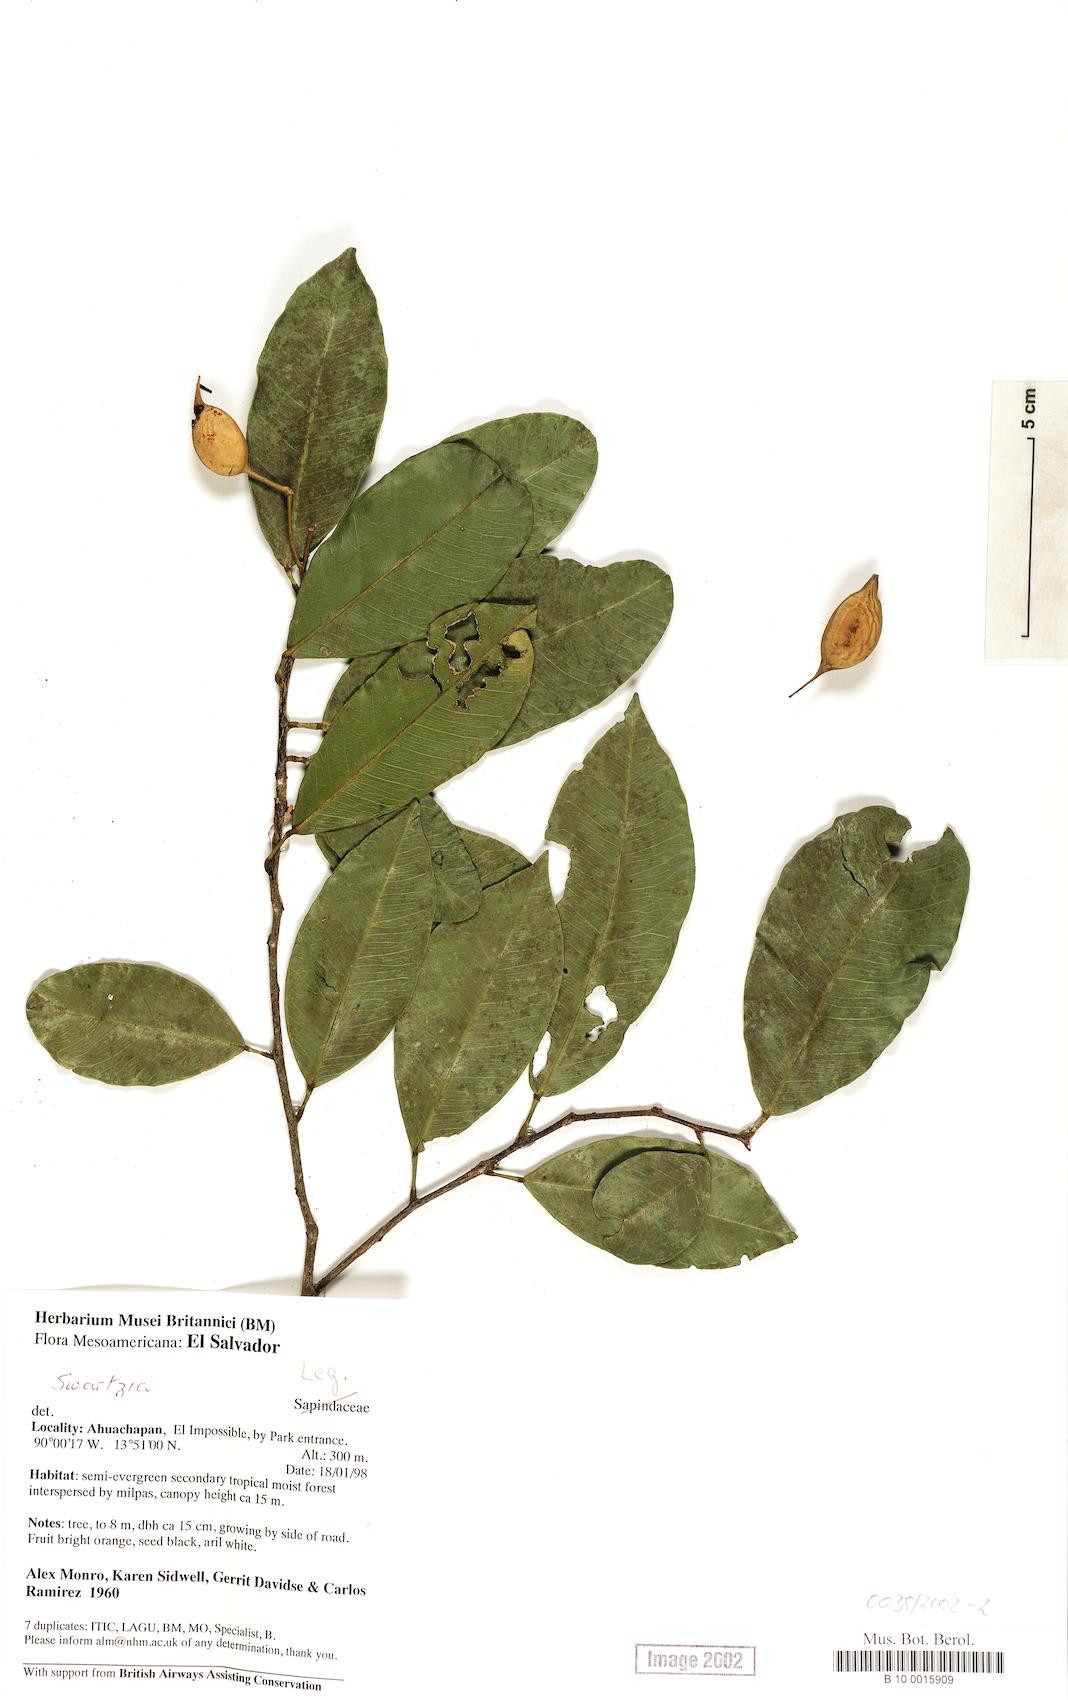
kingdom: Plantae
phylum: Tracheophyta
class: Magnoliopsida
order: Fabales
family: Fabaceae
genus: Swartzia
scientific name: Swartzia simplex
